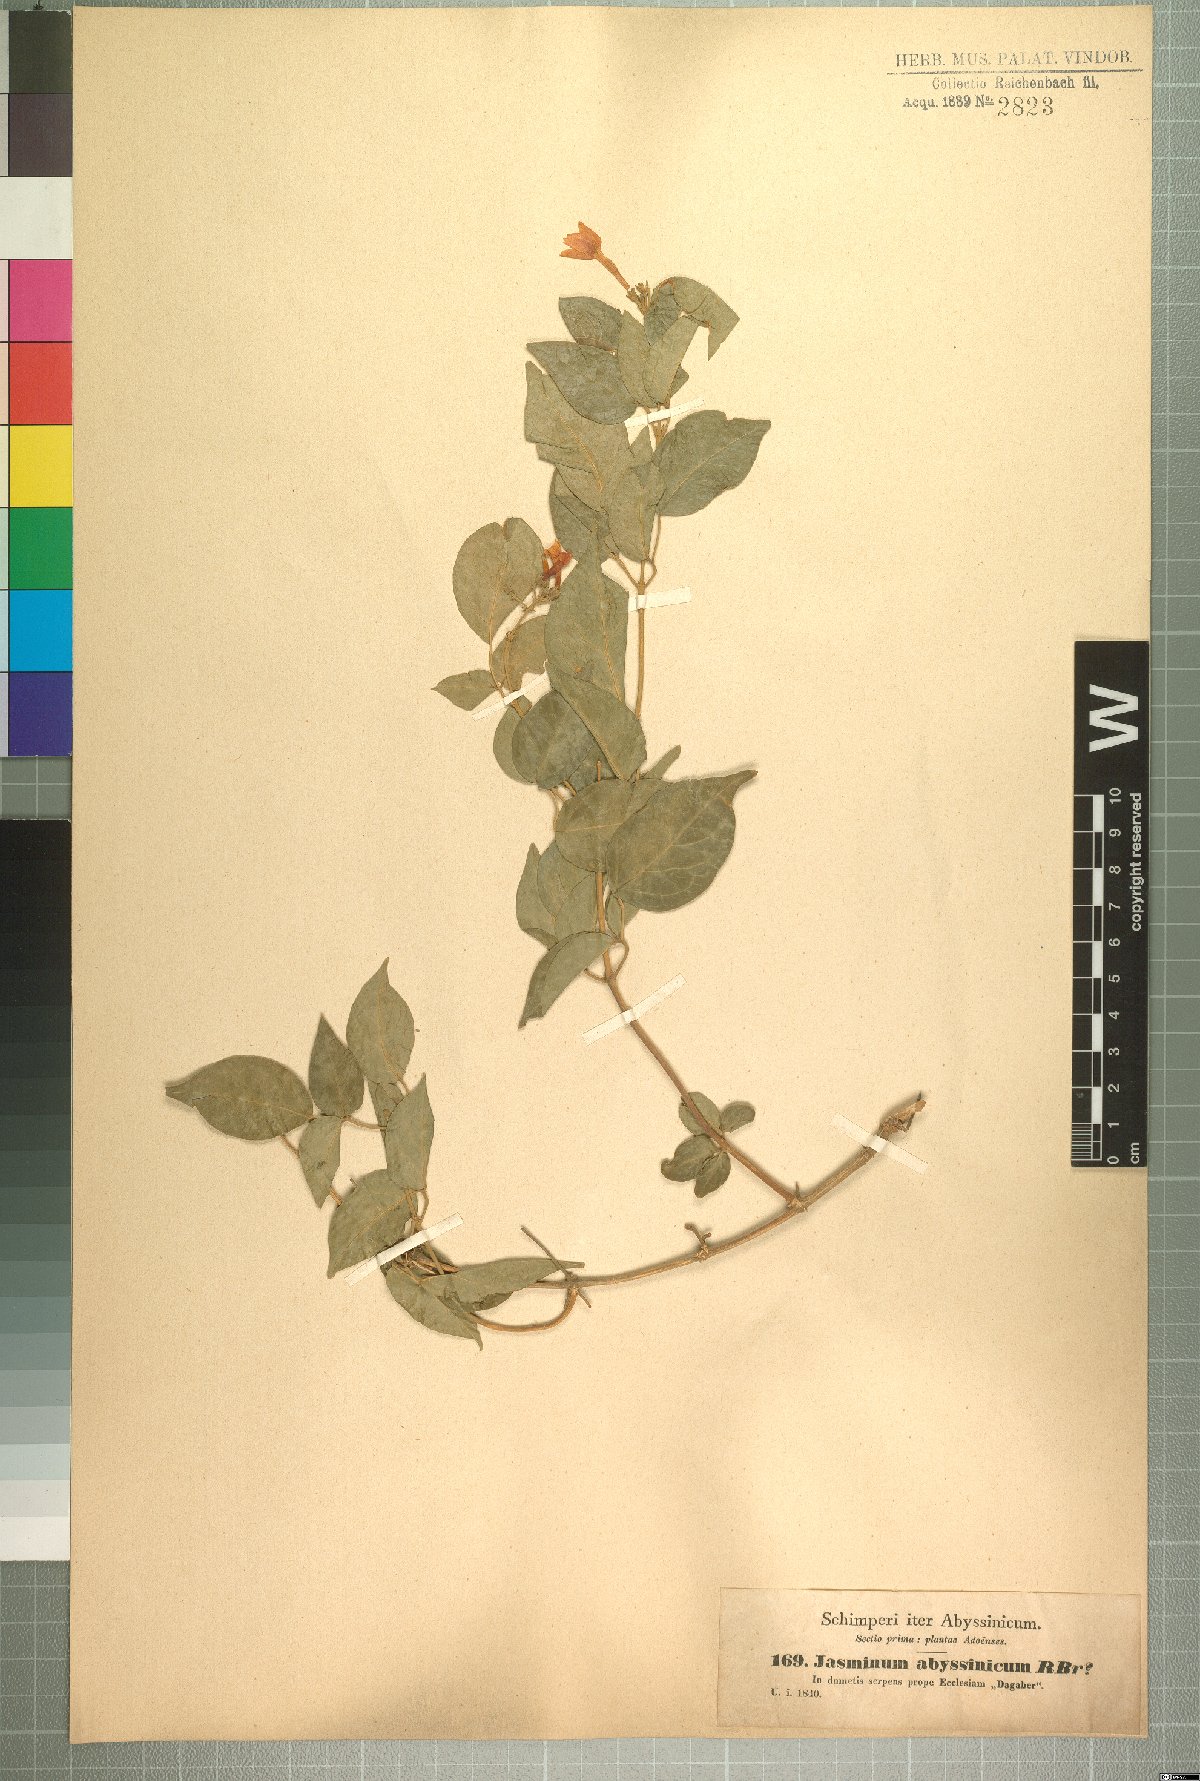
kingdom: Plantae
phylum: Tracheophyta
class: Magnoliopsida
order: Lamiales
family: Oleaceae
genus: Jasminum
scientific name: Jasminum abyssinicum
